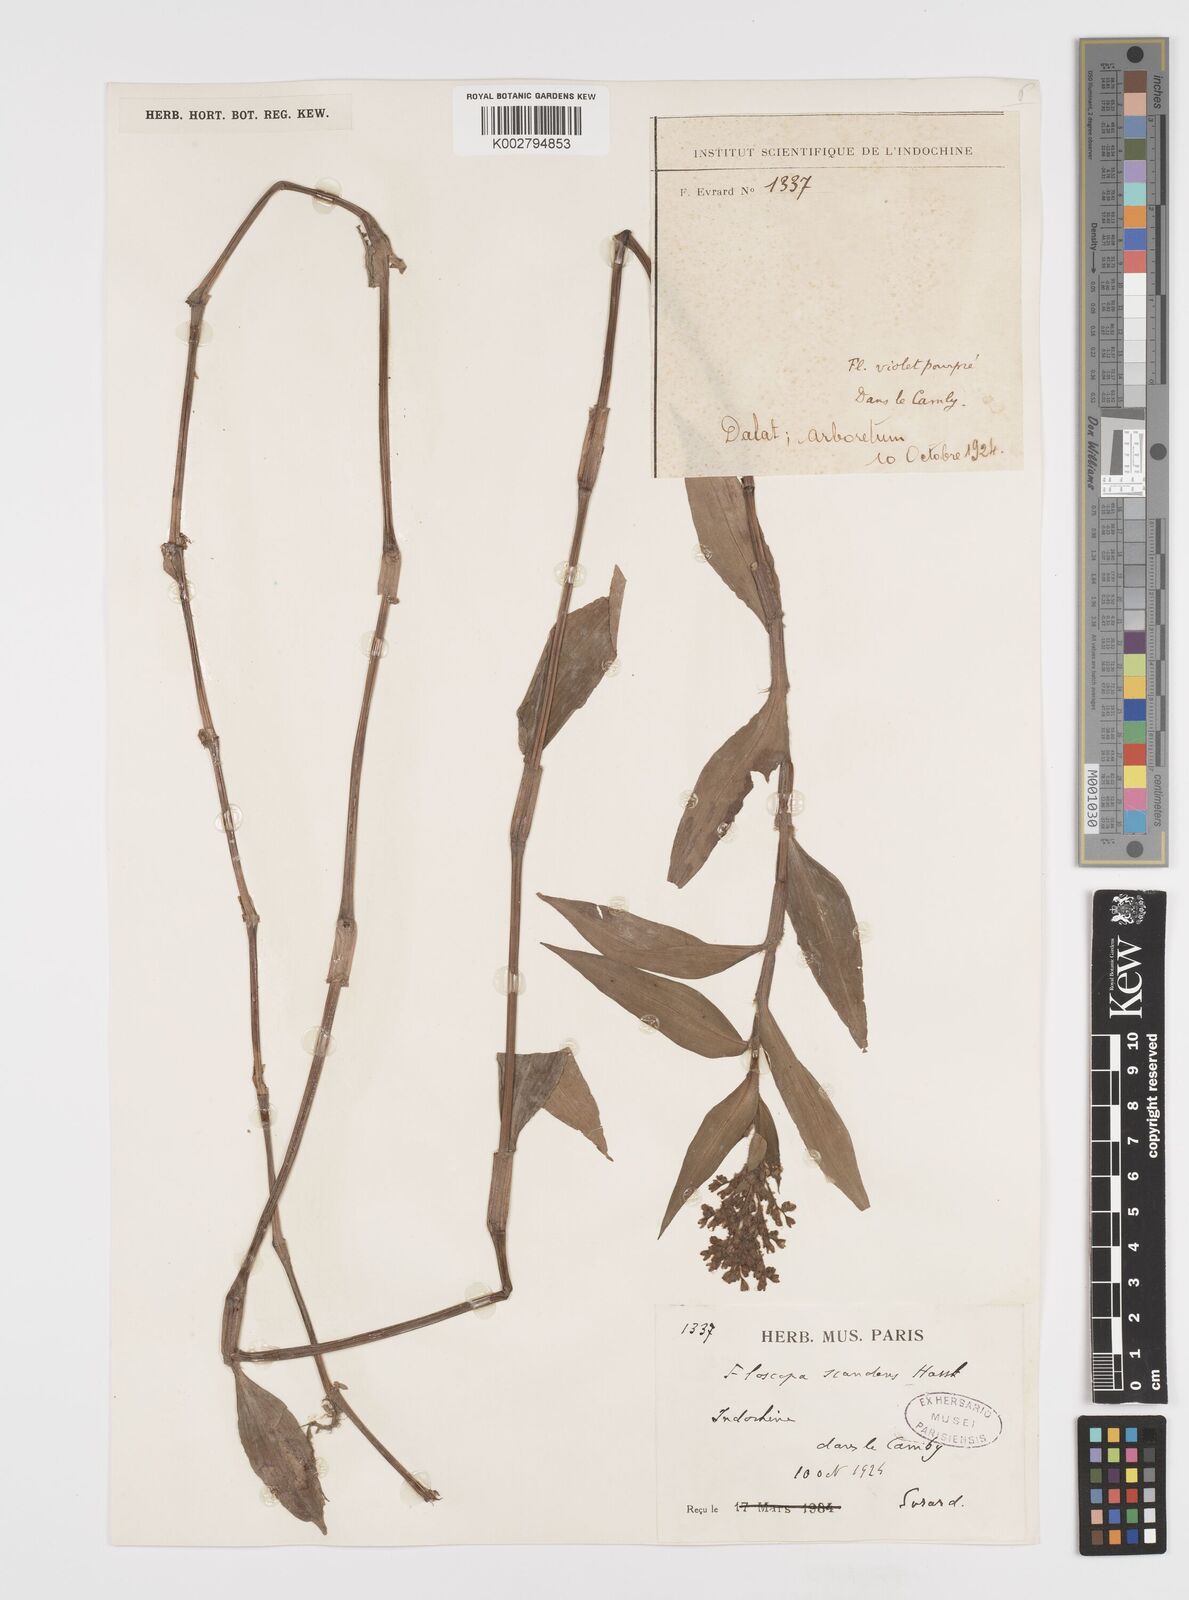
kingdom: Plantae
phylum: Tracheophyta
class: Liliopsida
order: Commelinales
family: Commelinaceae
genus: Floscopa
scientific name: Floscopa scandens
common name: Climbing flower cup
